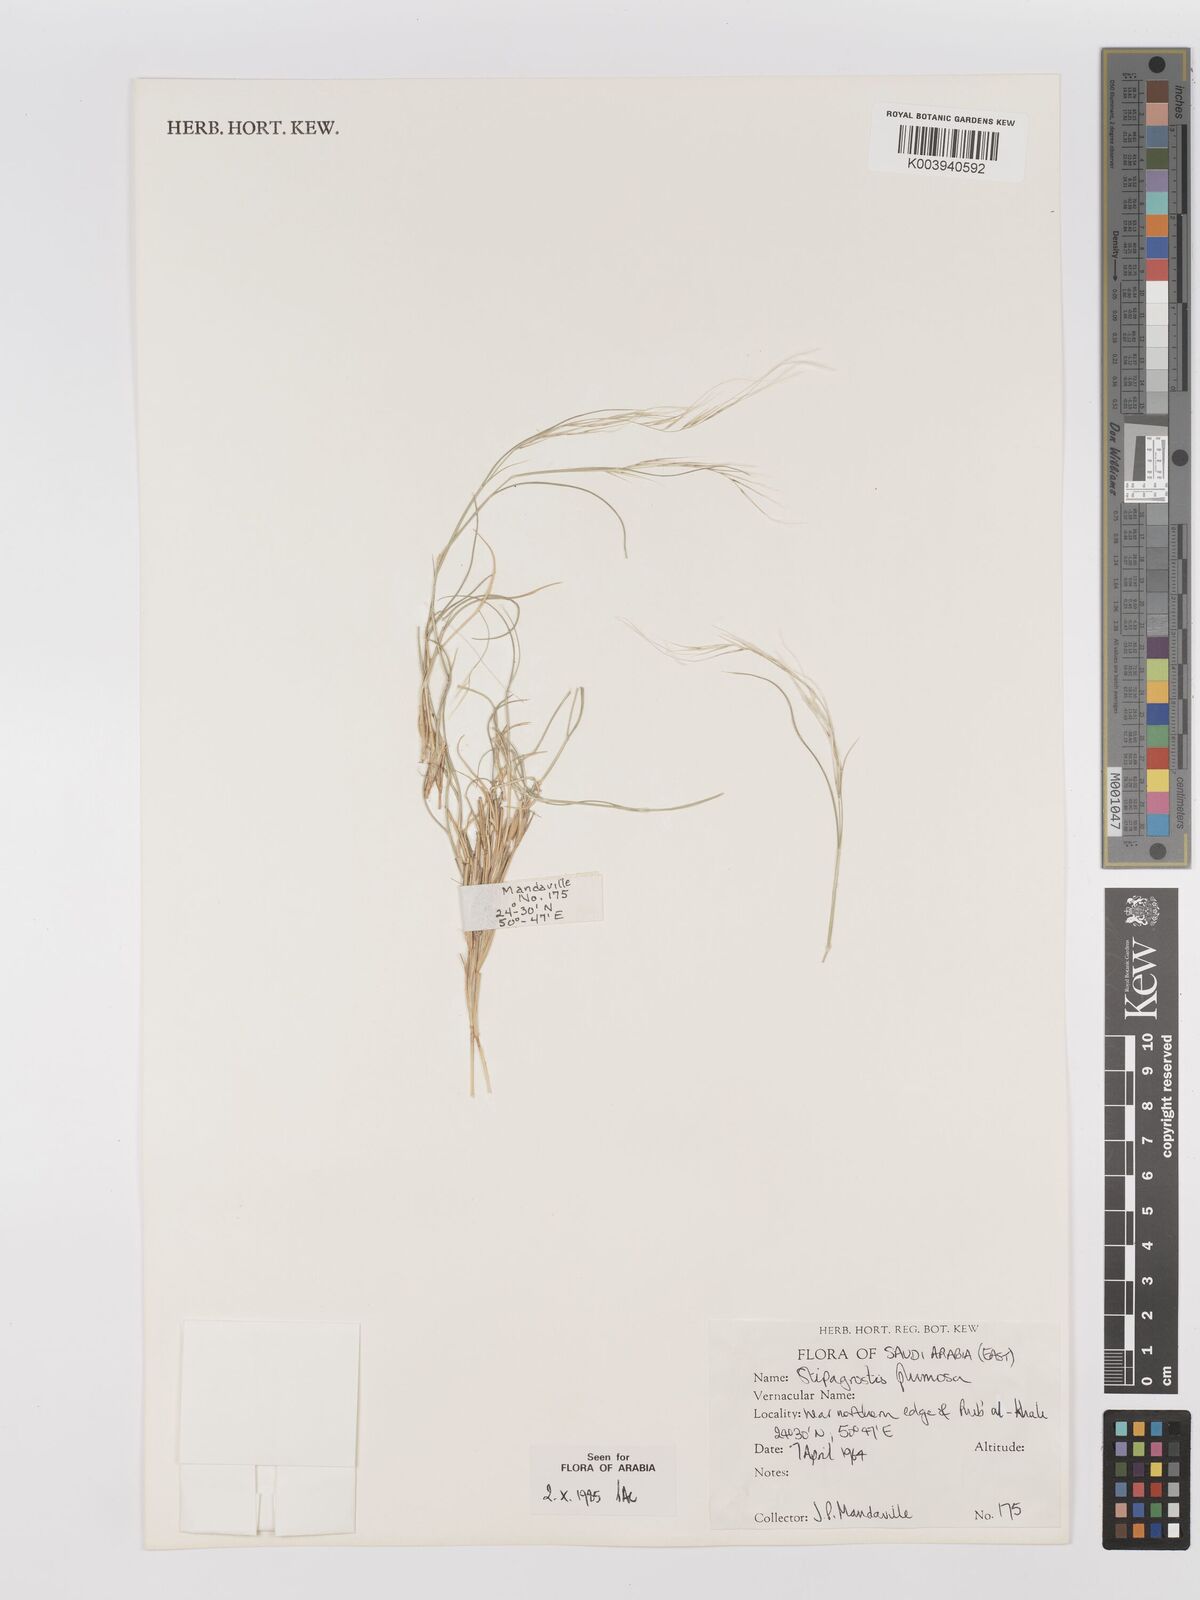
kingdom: Plantae
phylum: Tracheophyta
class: Liliopsida
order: Poales
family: Poaceae
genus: Stipagrostis
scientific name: Stipagrostis plumosa
